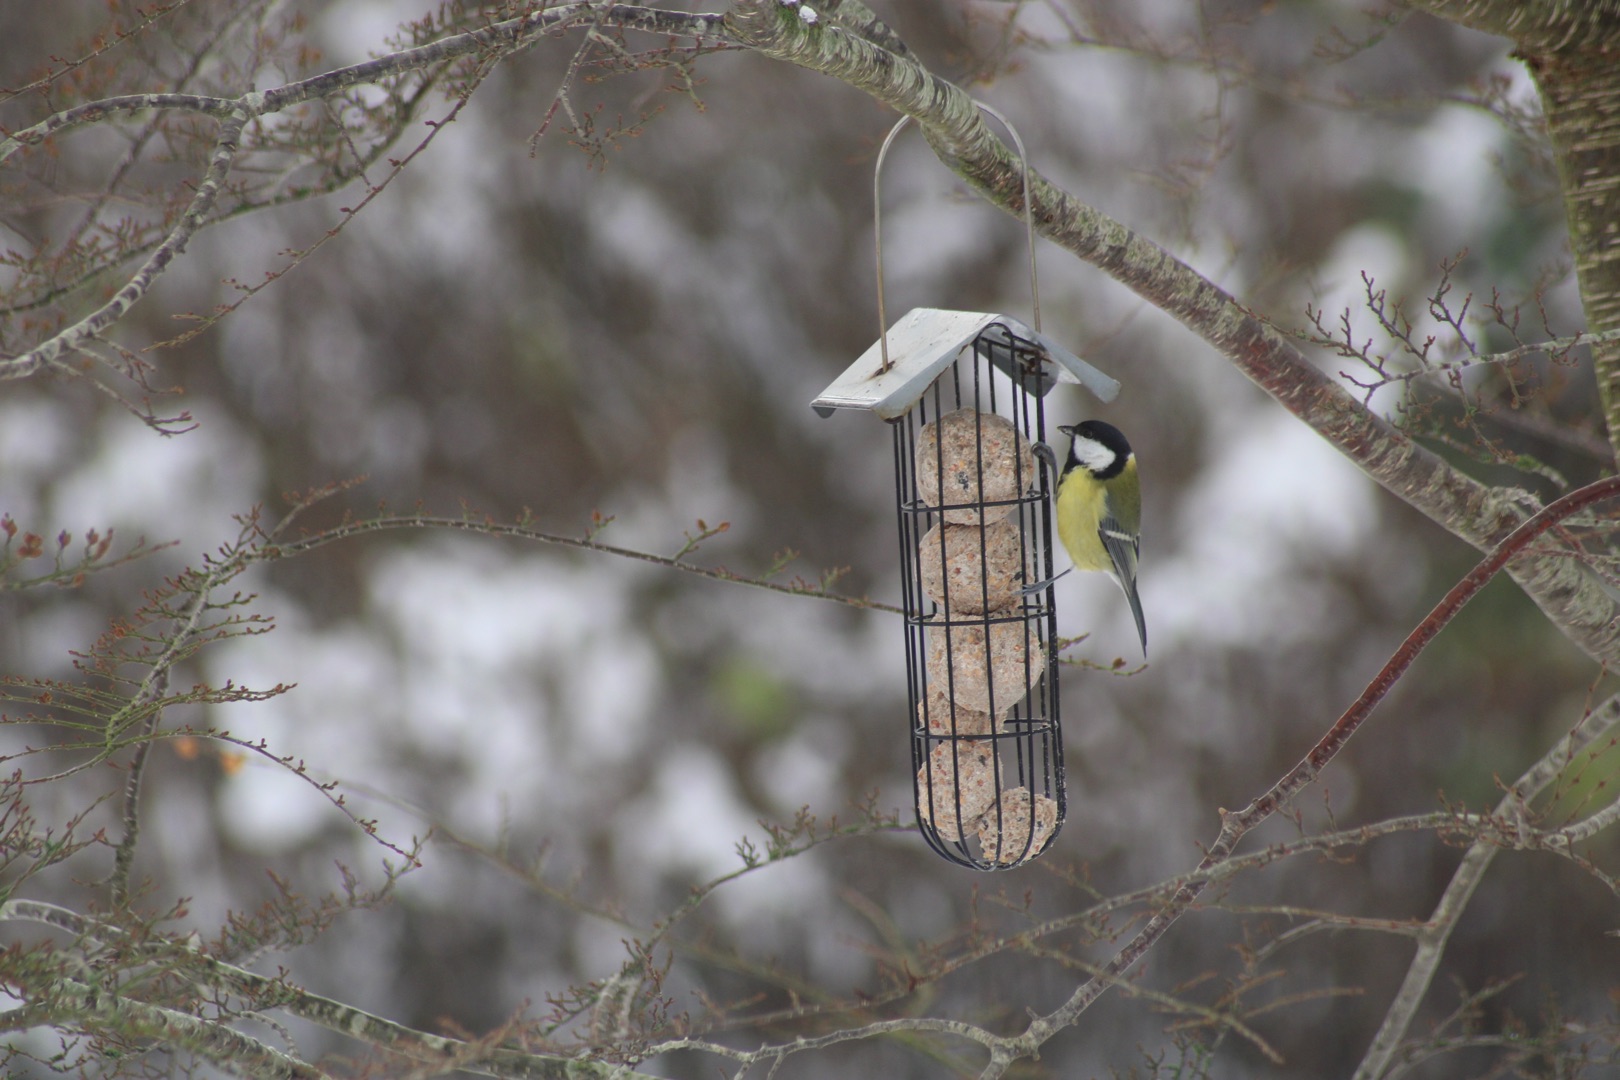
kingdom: Animalia
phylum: Chordata
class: Aves
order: Passeriformes
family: Paridae
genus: Parus
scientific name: Parus major
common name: Musvit
